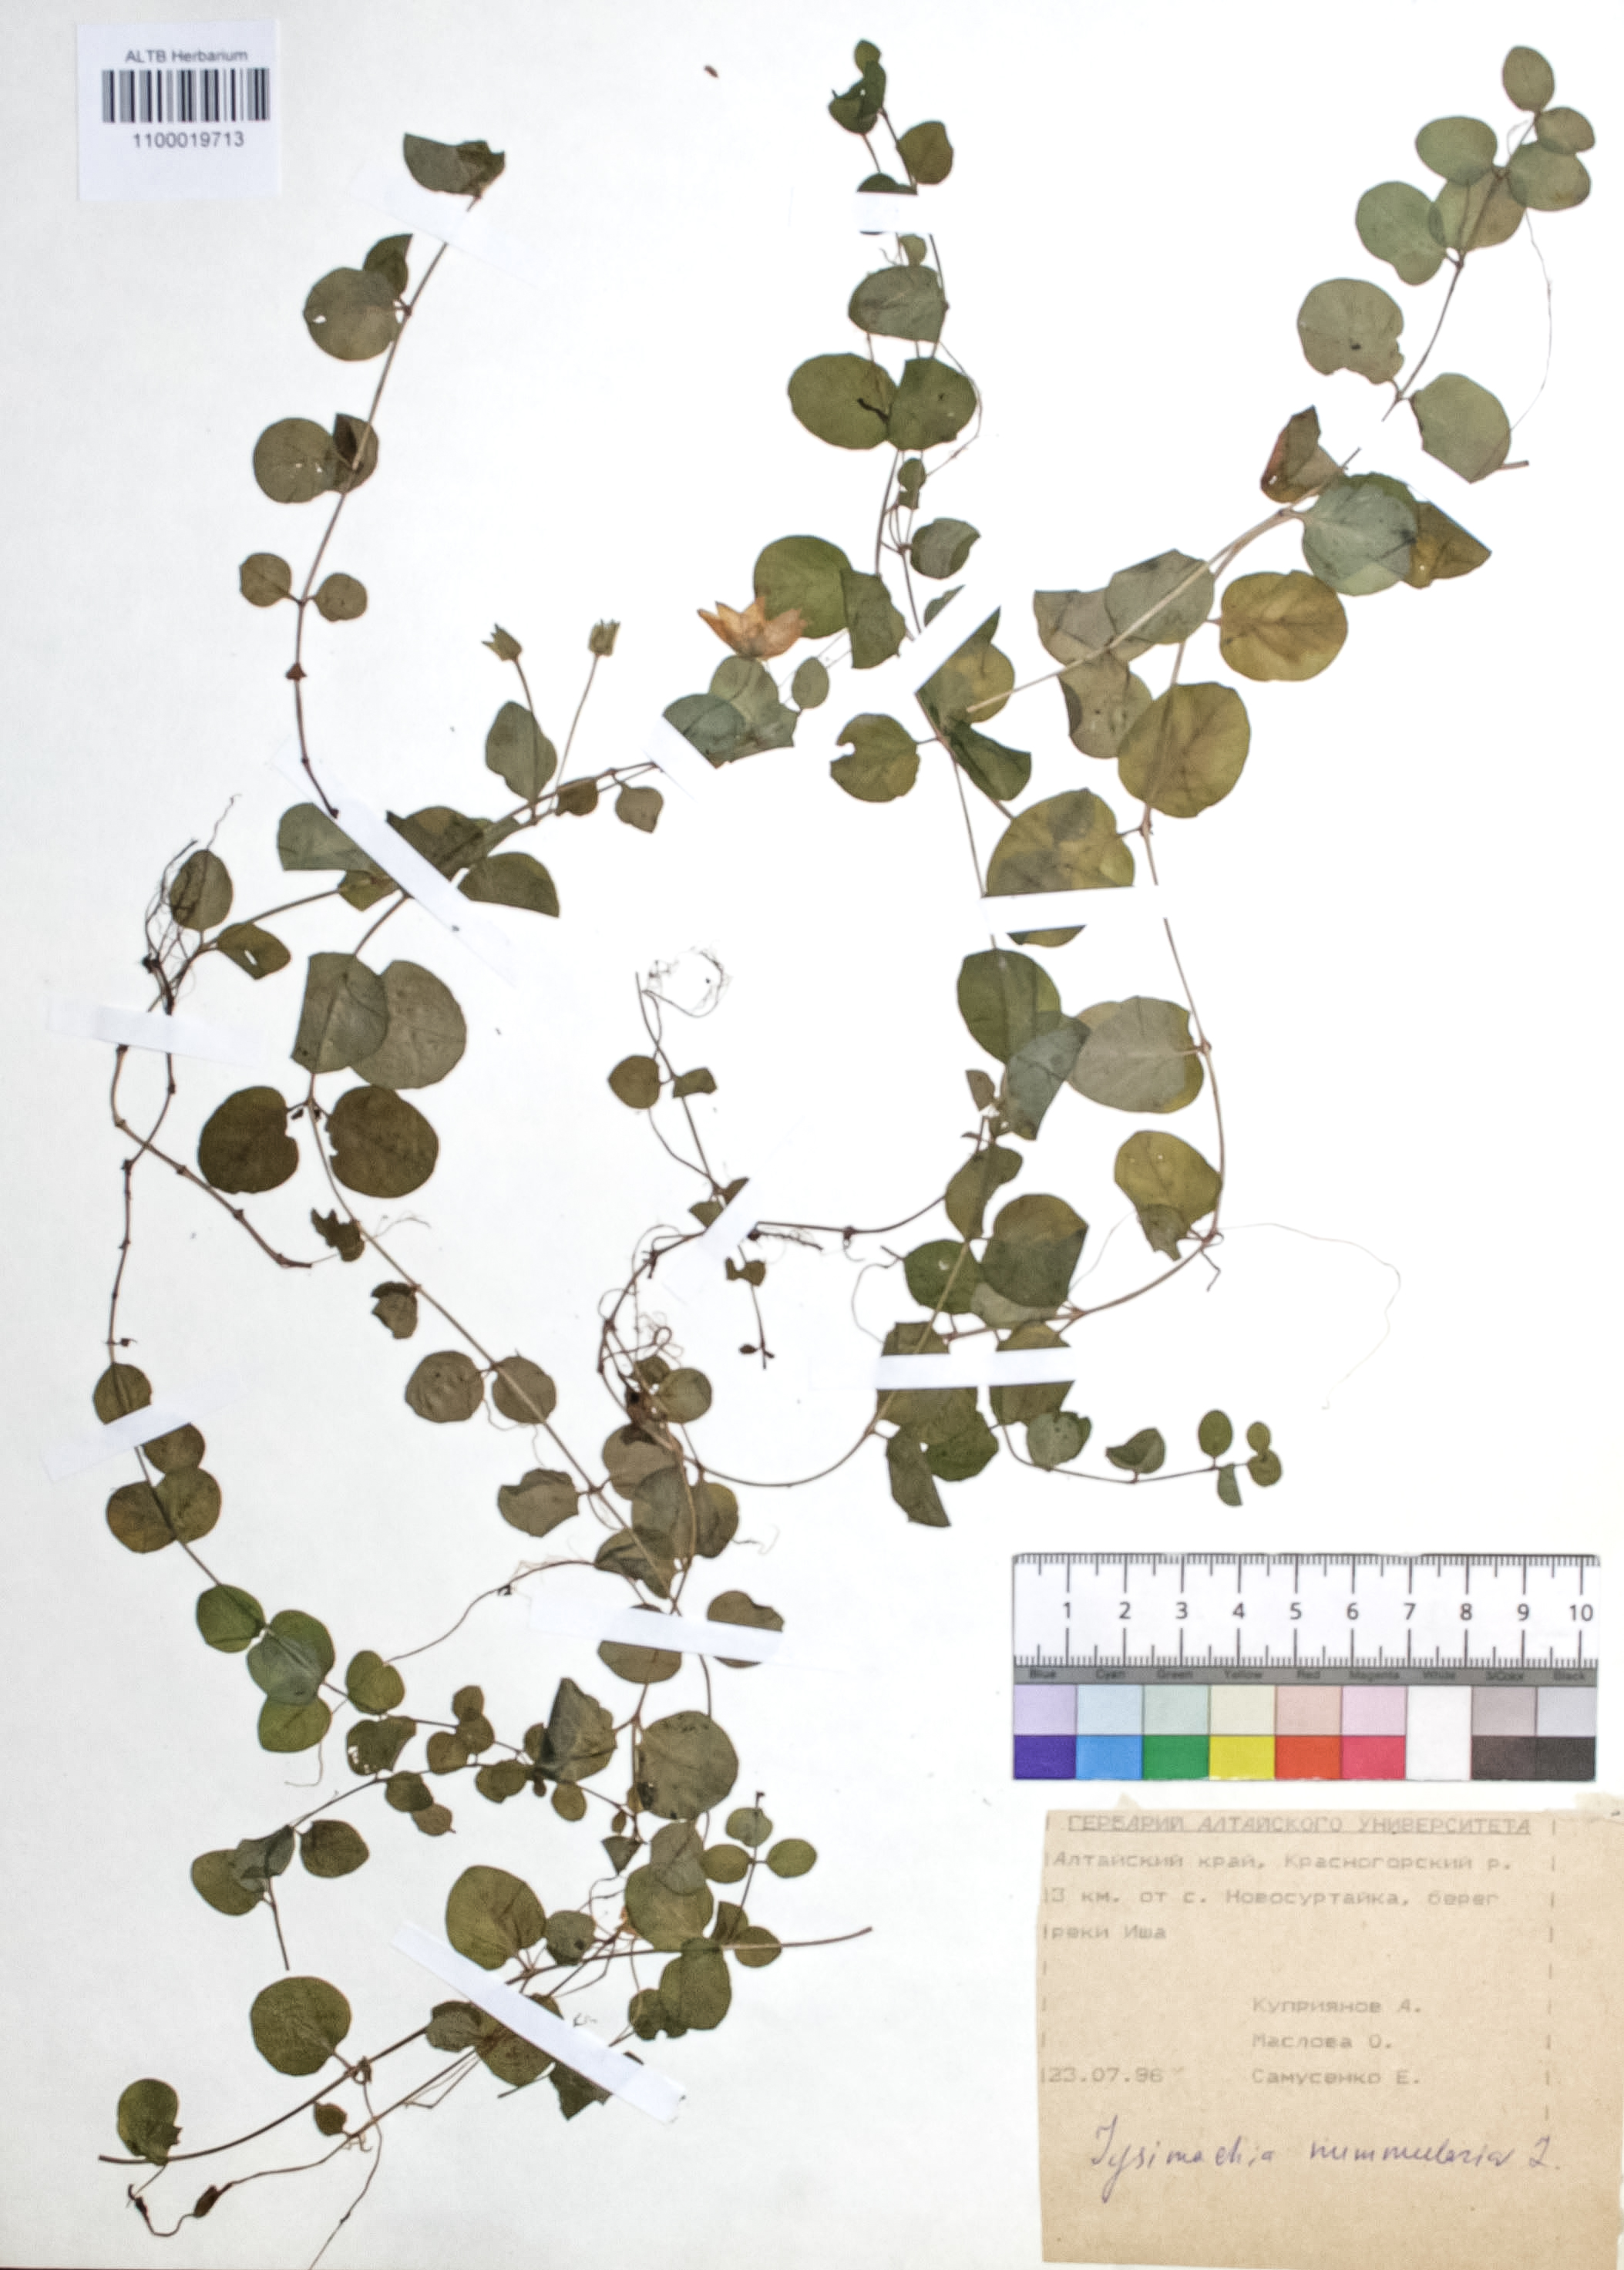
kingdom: Plantae
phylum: Tracheophyta
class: Magnoliopsida
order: Ericales
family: Primulaceae
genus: Lysimachia
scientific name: Lysimachia nummularia
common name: Moneywort
